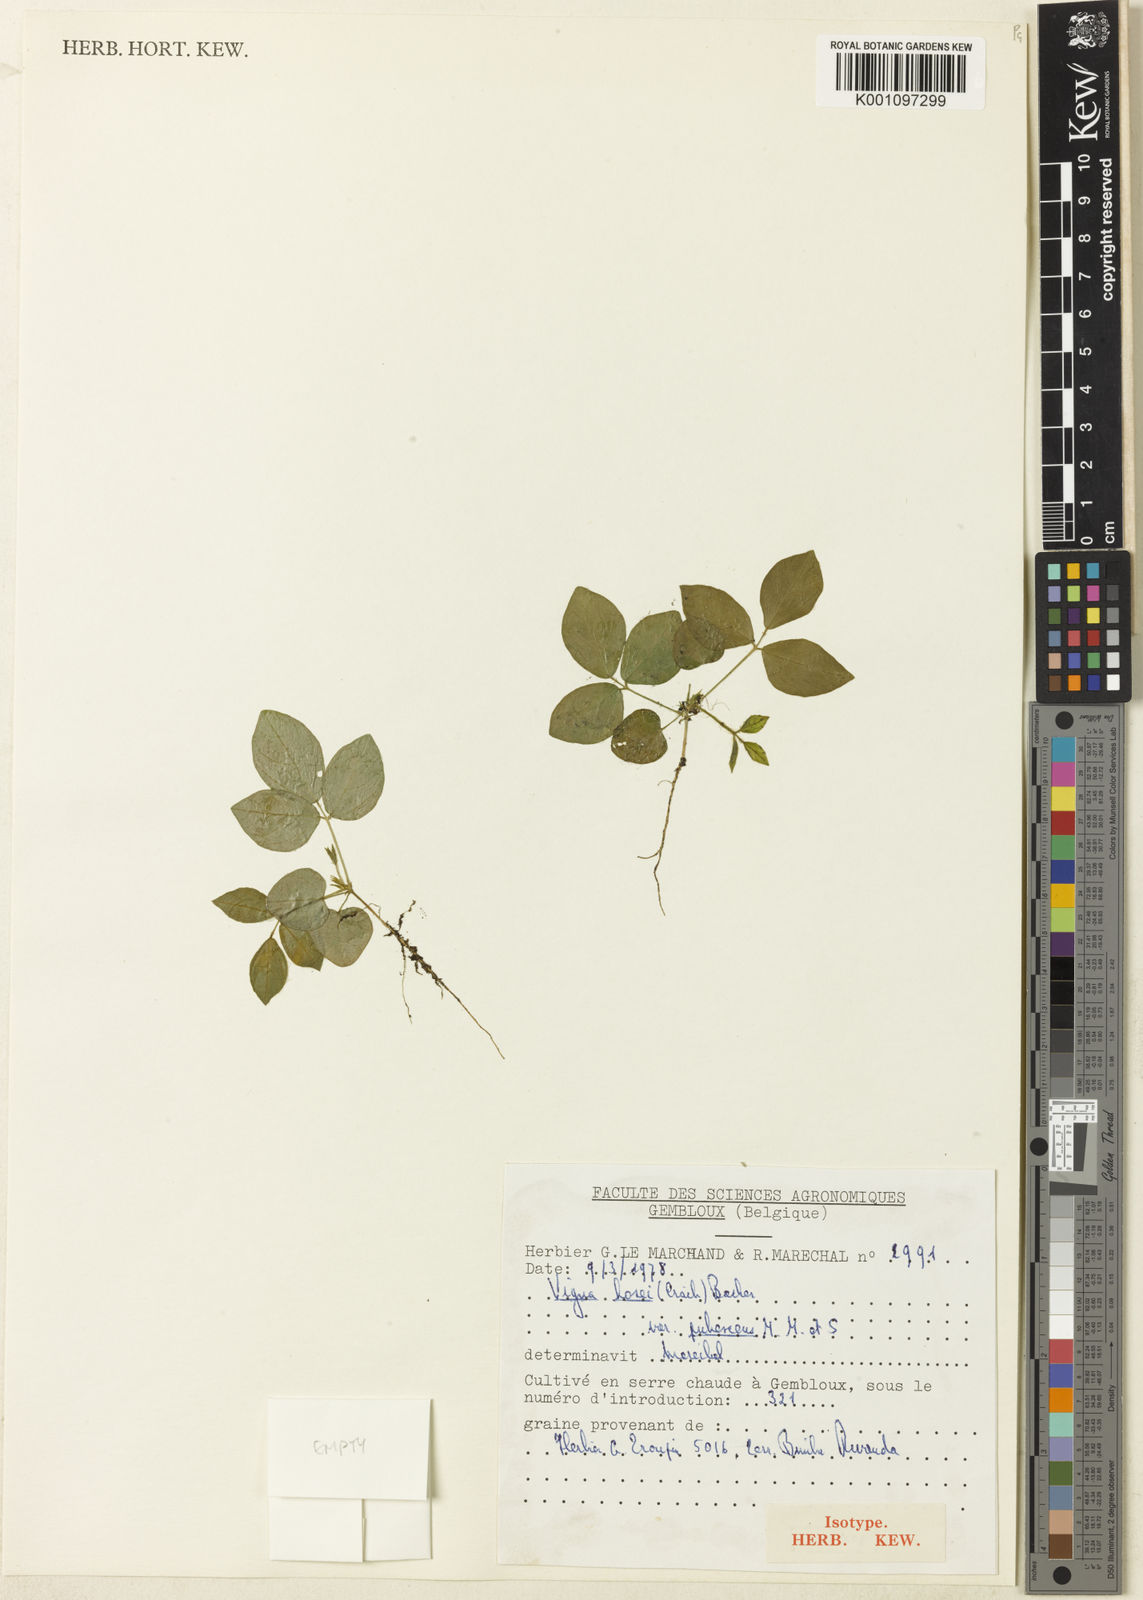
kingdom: Plantae
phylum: Tracheophyta
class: Magnoliopsida
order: Fabales
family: Fabaceae
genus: Vigna
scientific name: Vigna hosei
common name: Sarawak-bean
